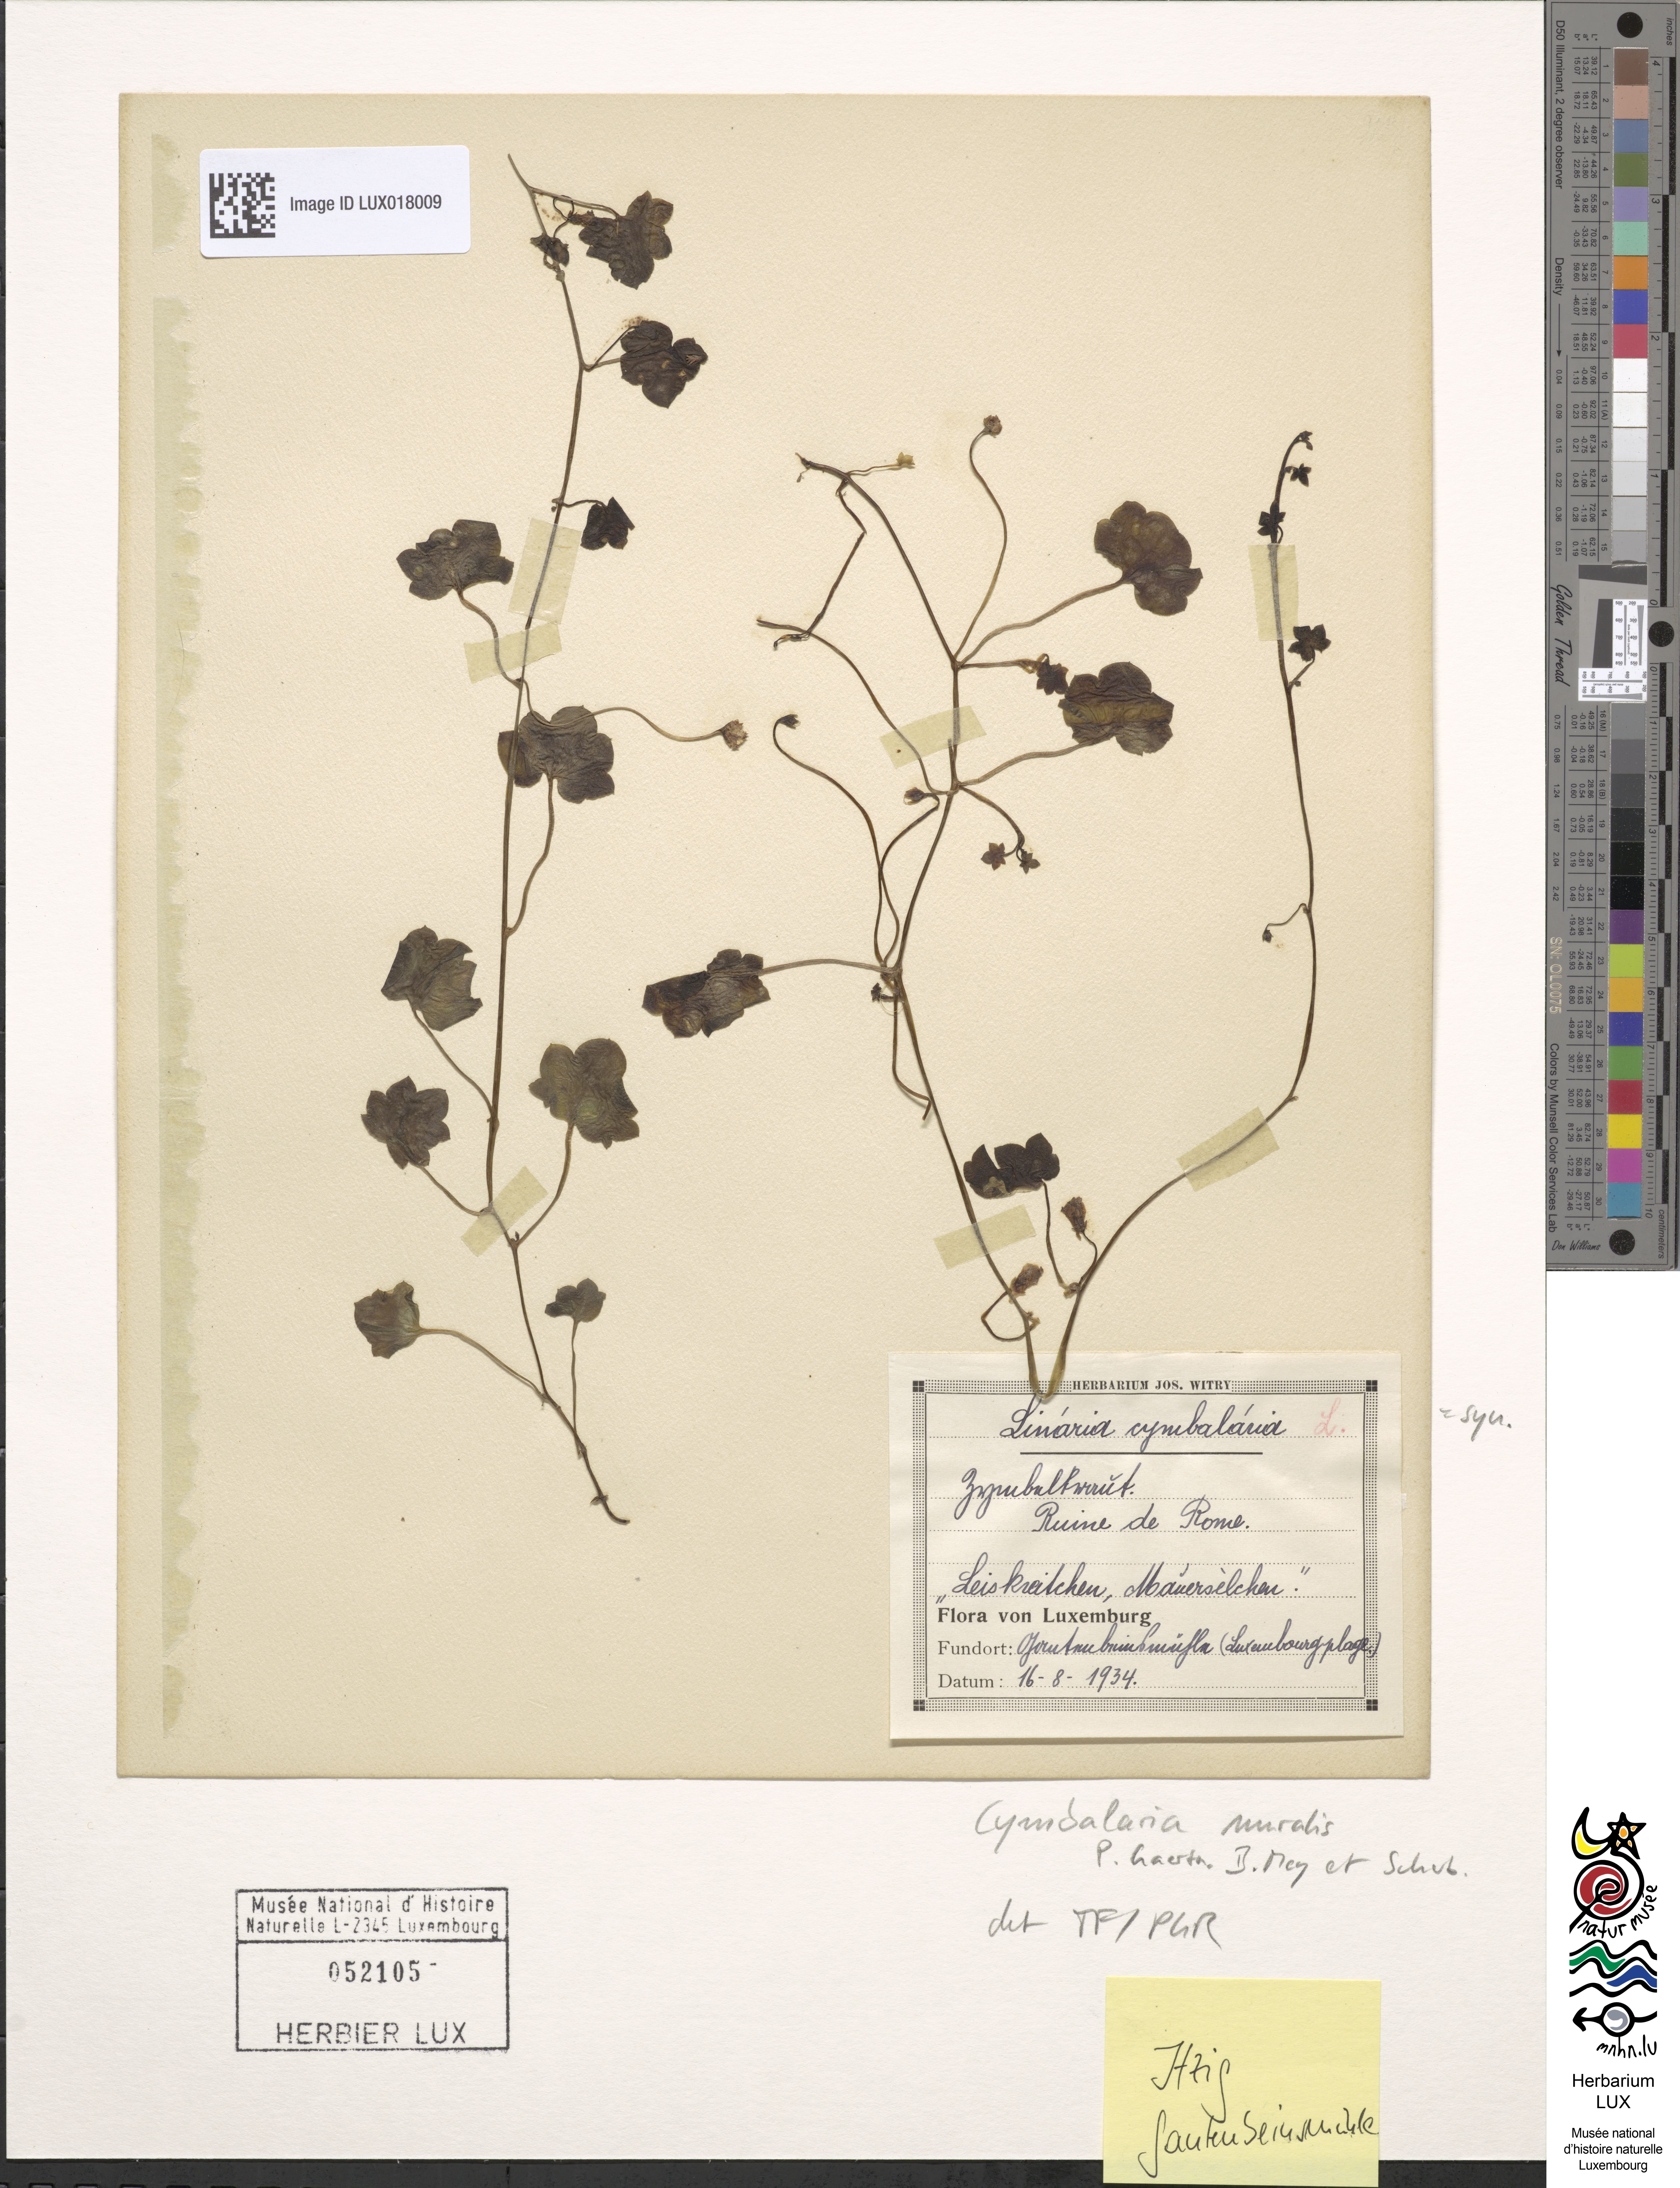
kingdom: Plantae
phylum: Tracheophyta
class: Magnoliopsida
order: Lamiales
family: Plantaginaceae
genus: Cymbalaria
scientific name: Cymbalaria muralis
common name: Ivy-leaved toadflax
